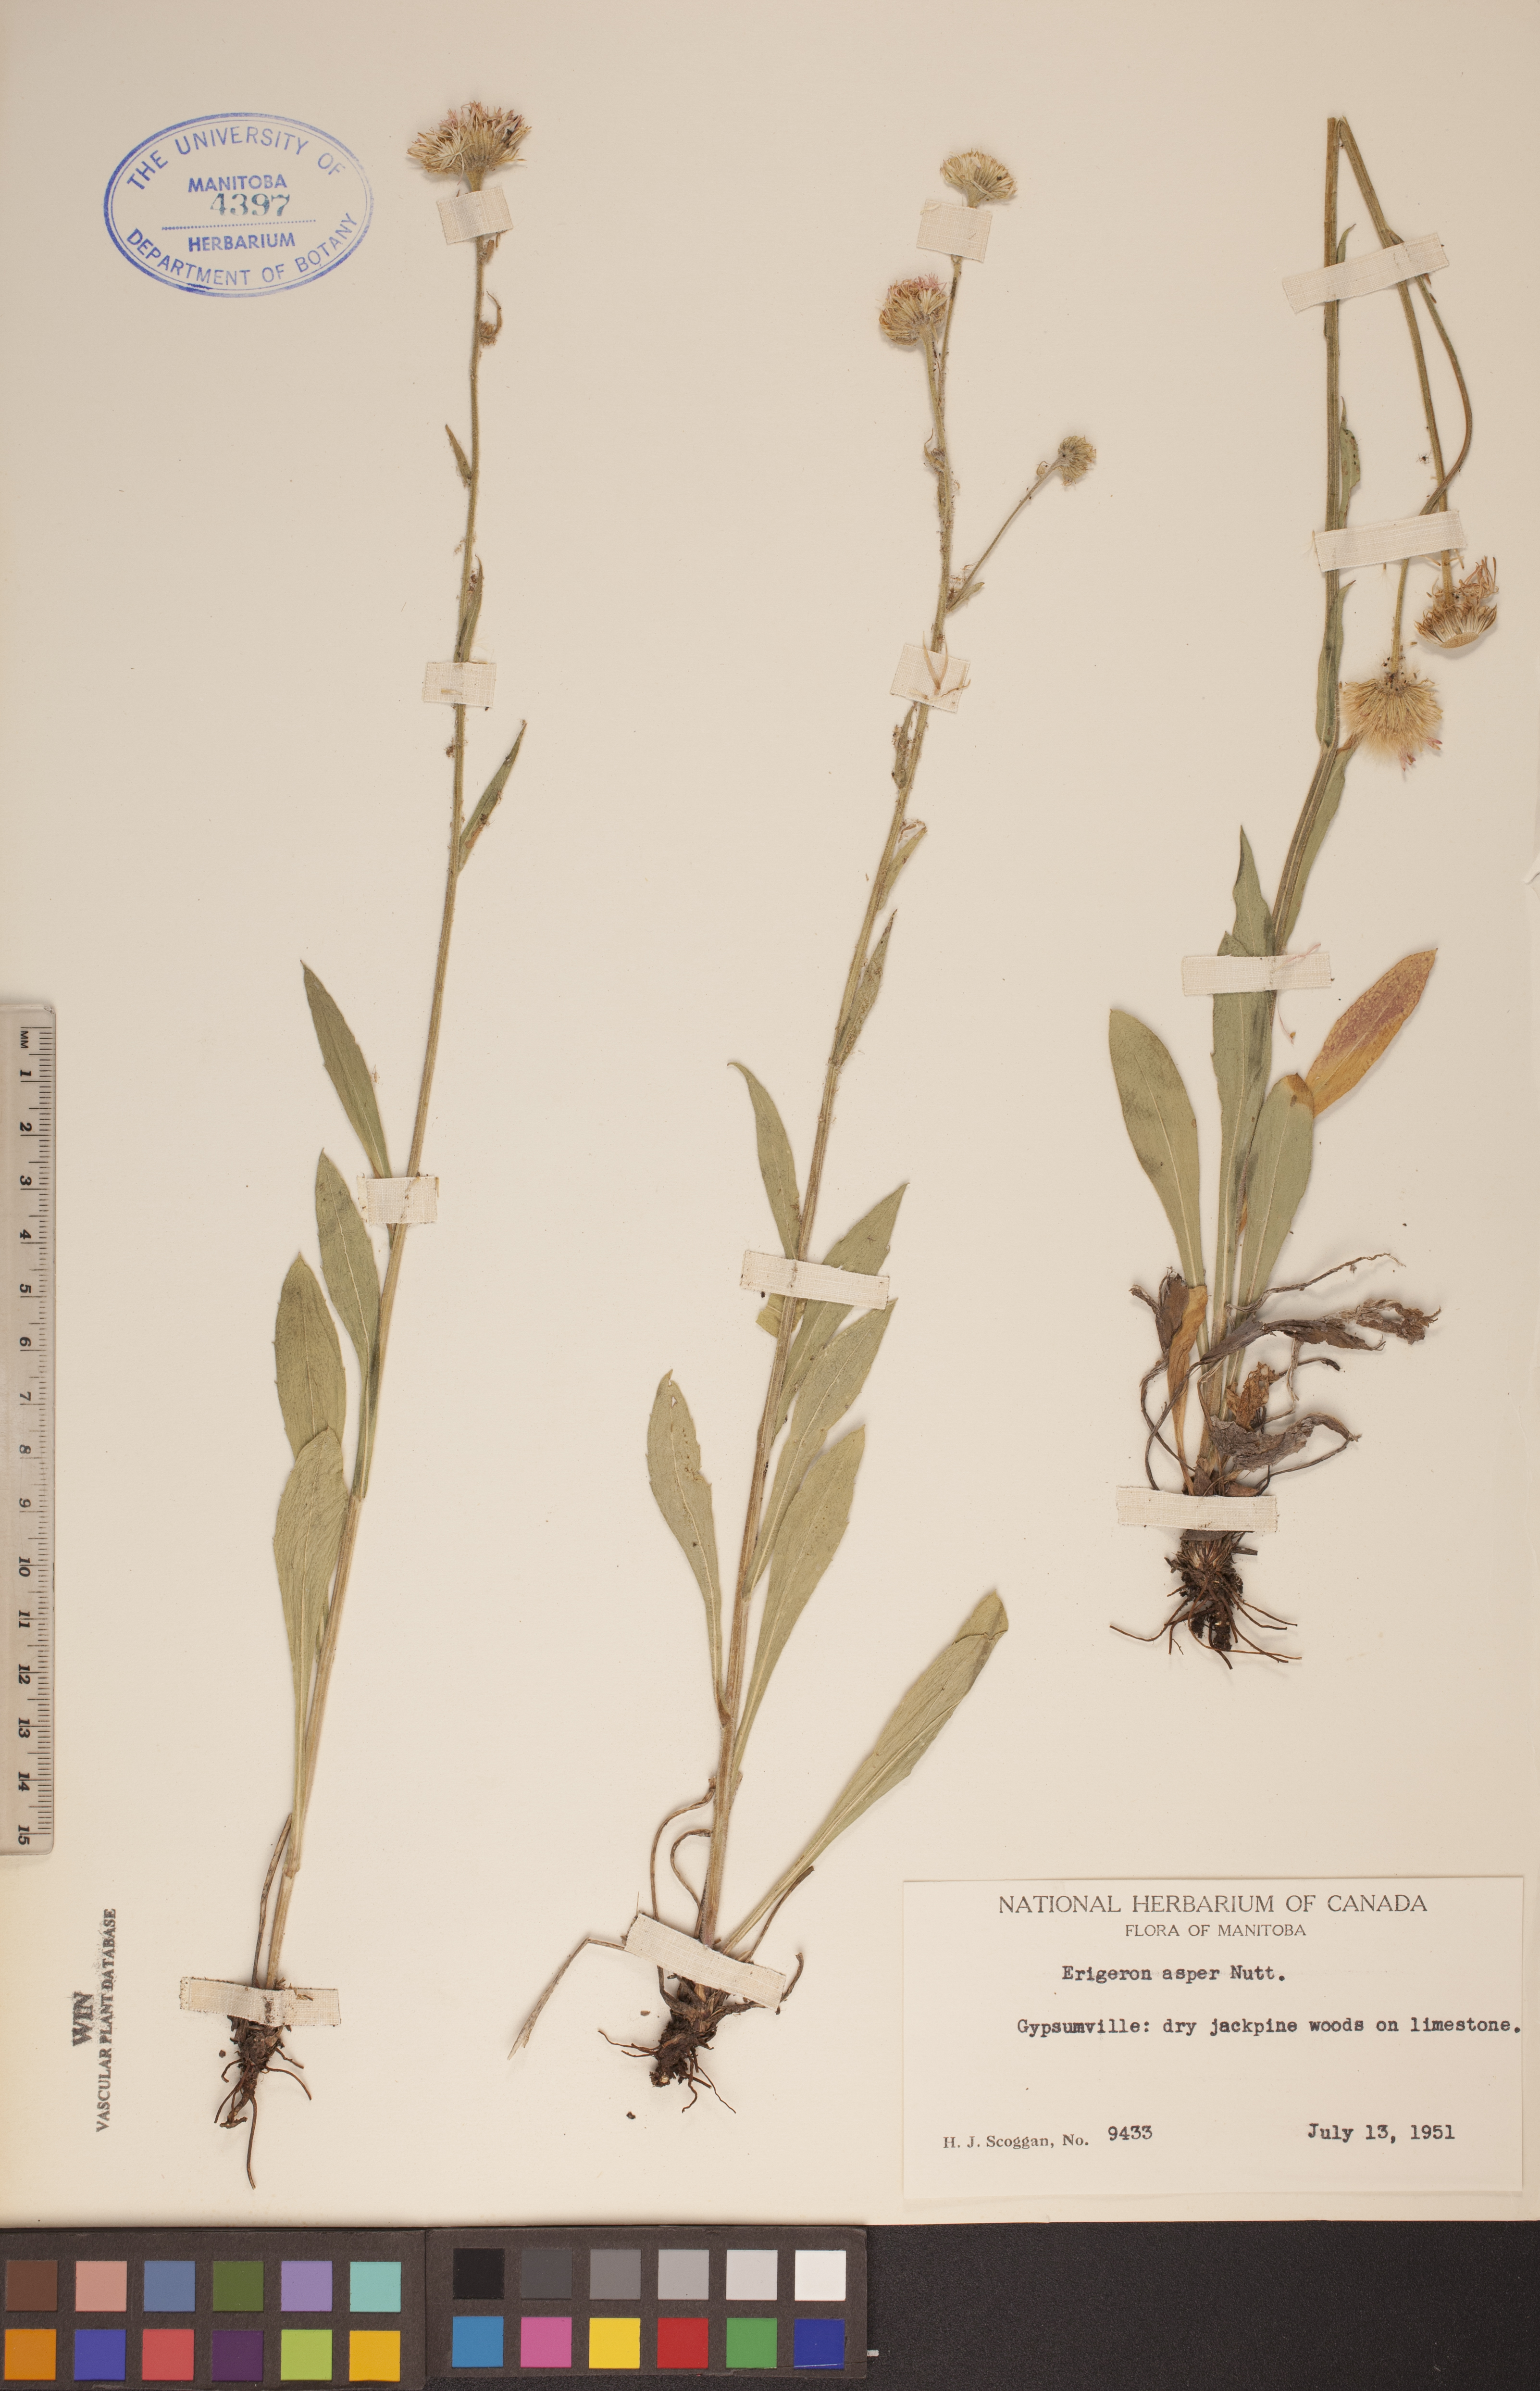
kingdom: Plantae
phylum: Tracheophyta
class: Magnoliopsida
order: Asterales
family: Asteraceae
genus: Erigeron
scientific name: Erigeron glabellus
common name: Smooth fleabane
